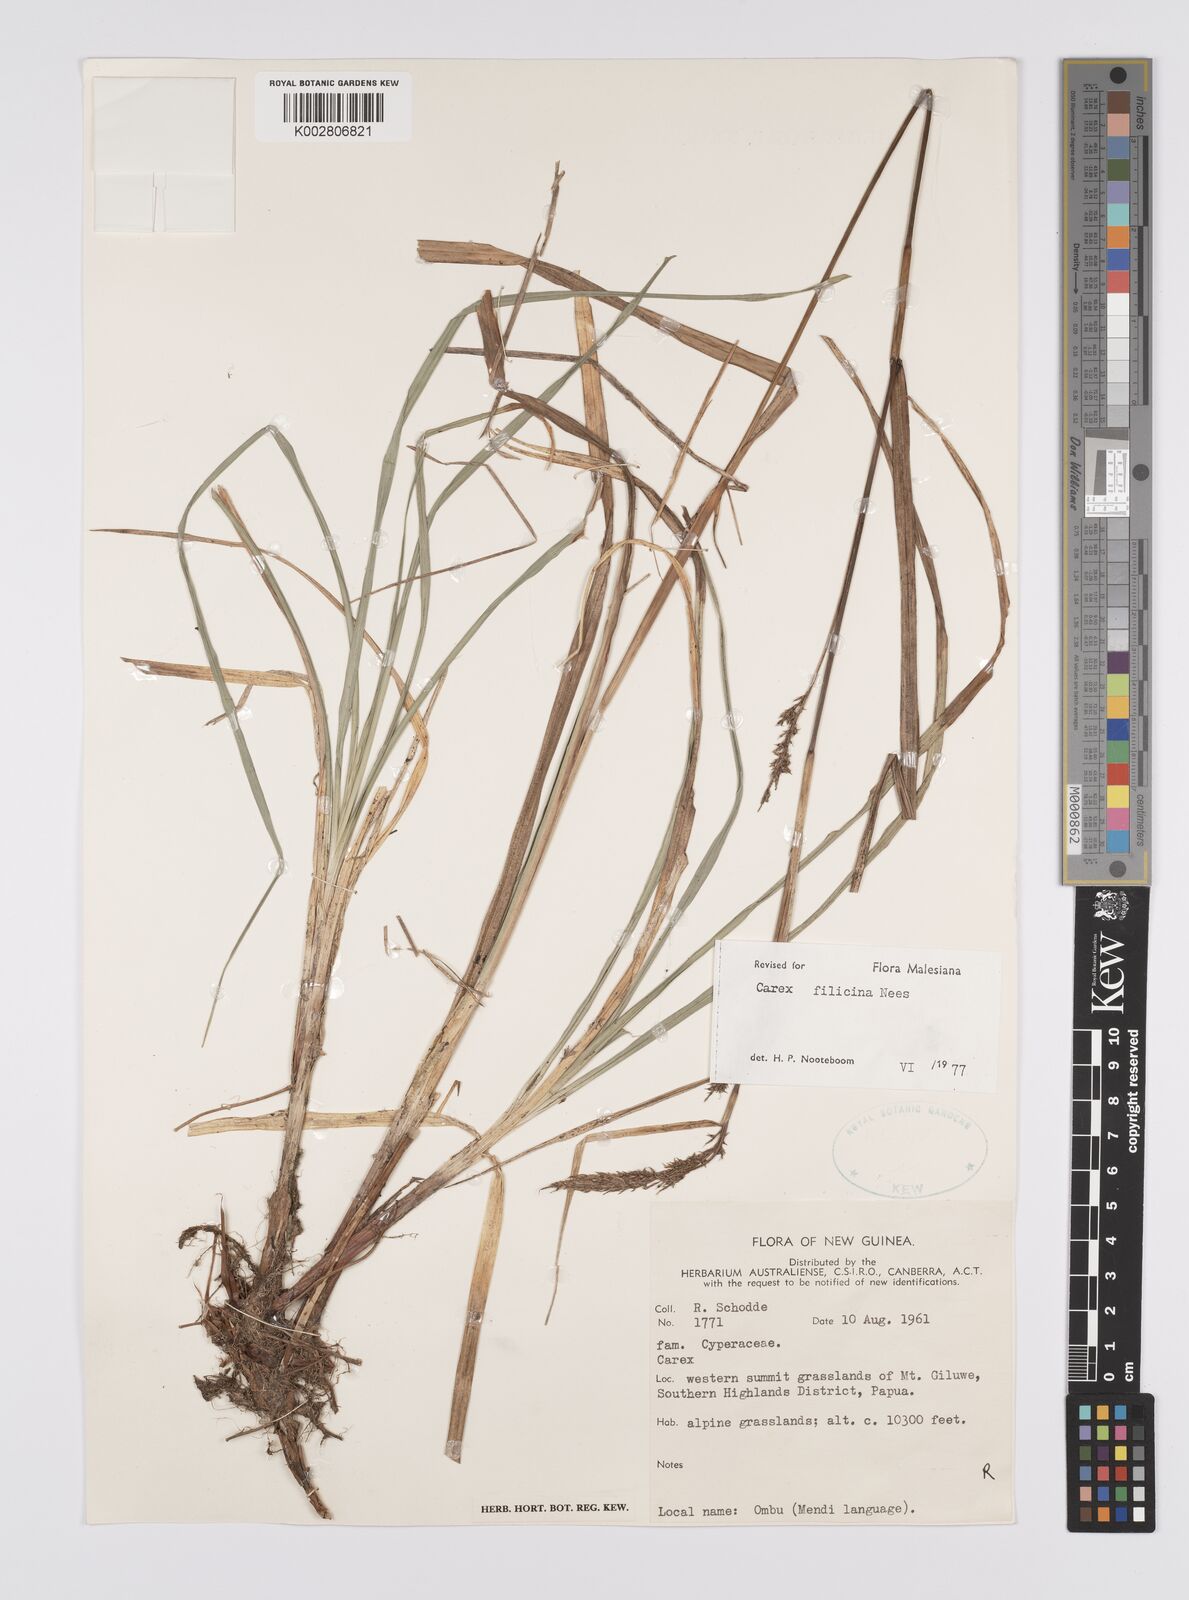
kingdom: Plantae
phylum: Tracheophyta
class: Liliopsida
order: Poales
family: Cyperaceae
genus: Carex
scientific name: Carex filicina
